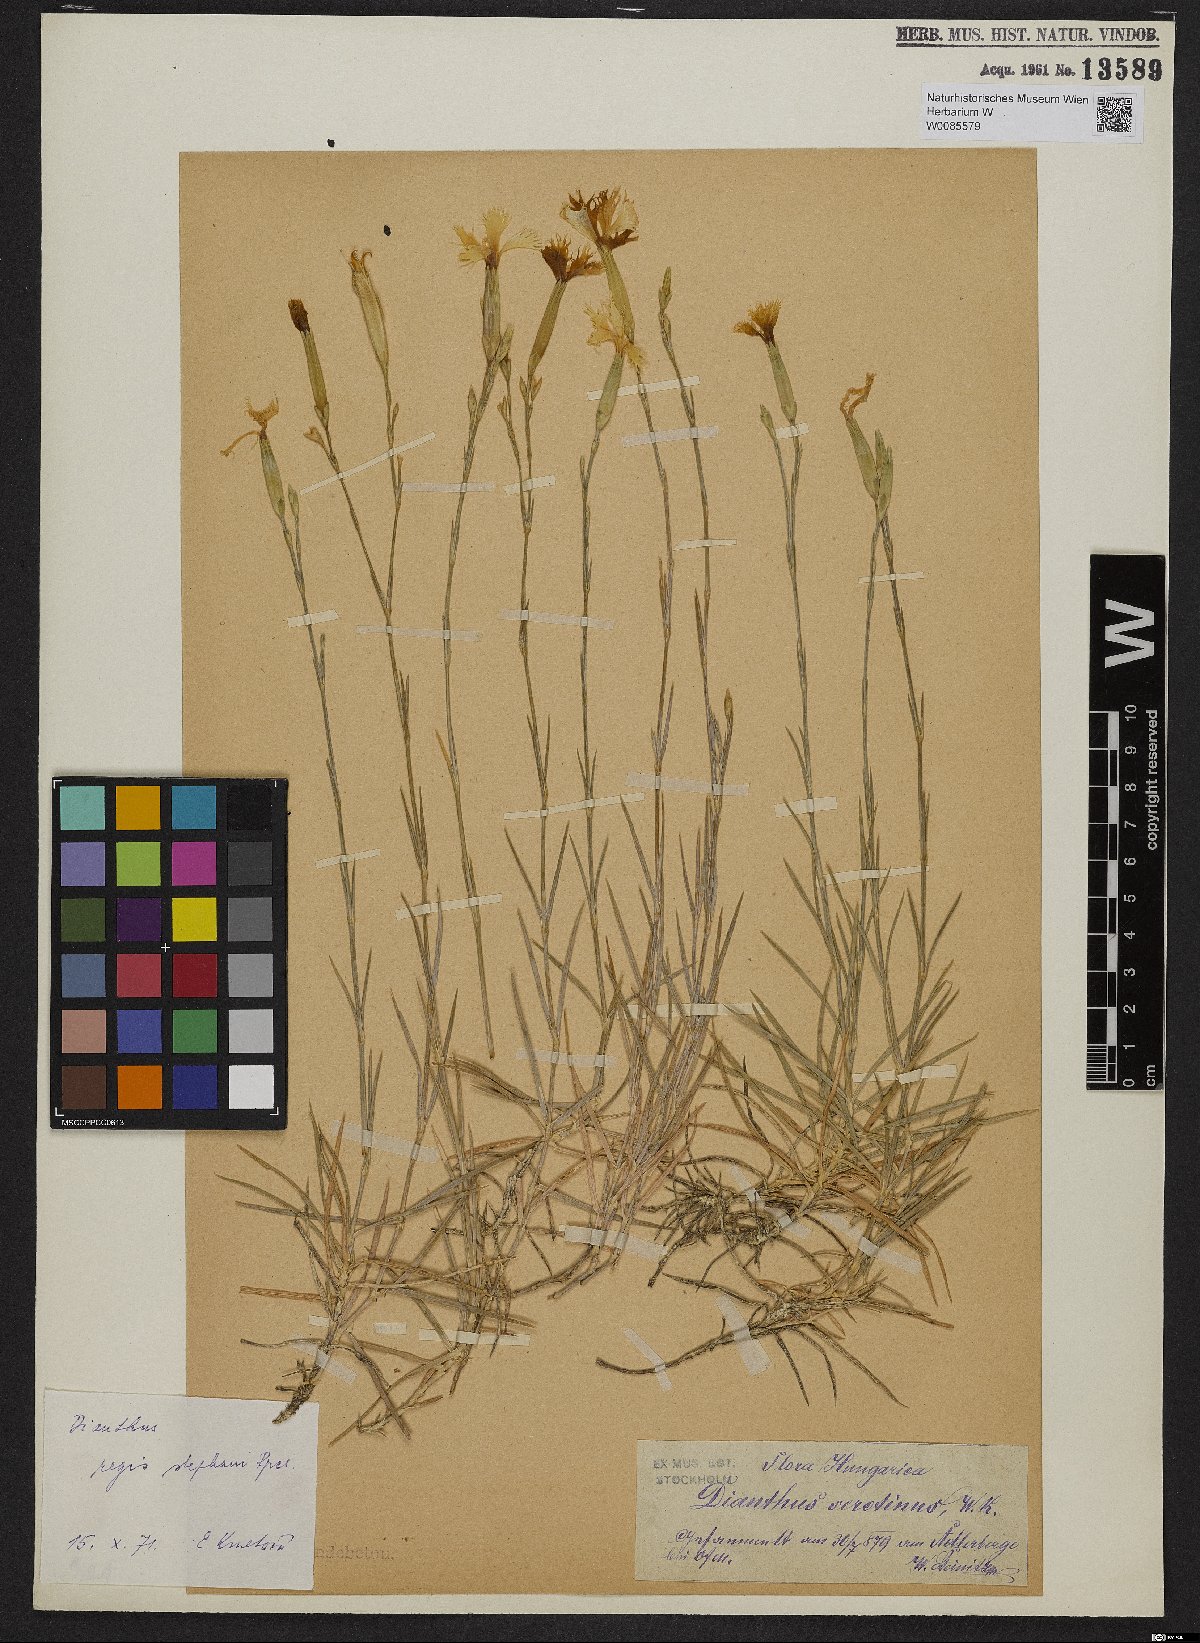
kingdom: Plantae
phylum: Tracheophyta
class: Magnoliopsida
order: Caryophyllales
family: Caryophyllaceae
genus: Dianthus
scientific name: Dianthus plumarius
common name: Pink
